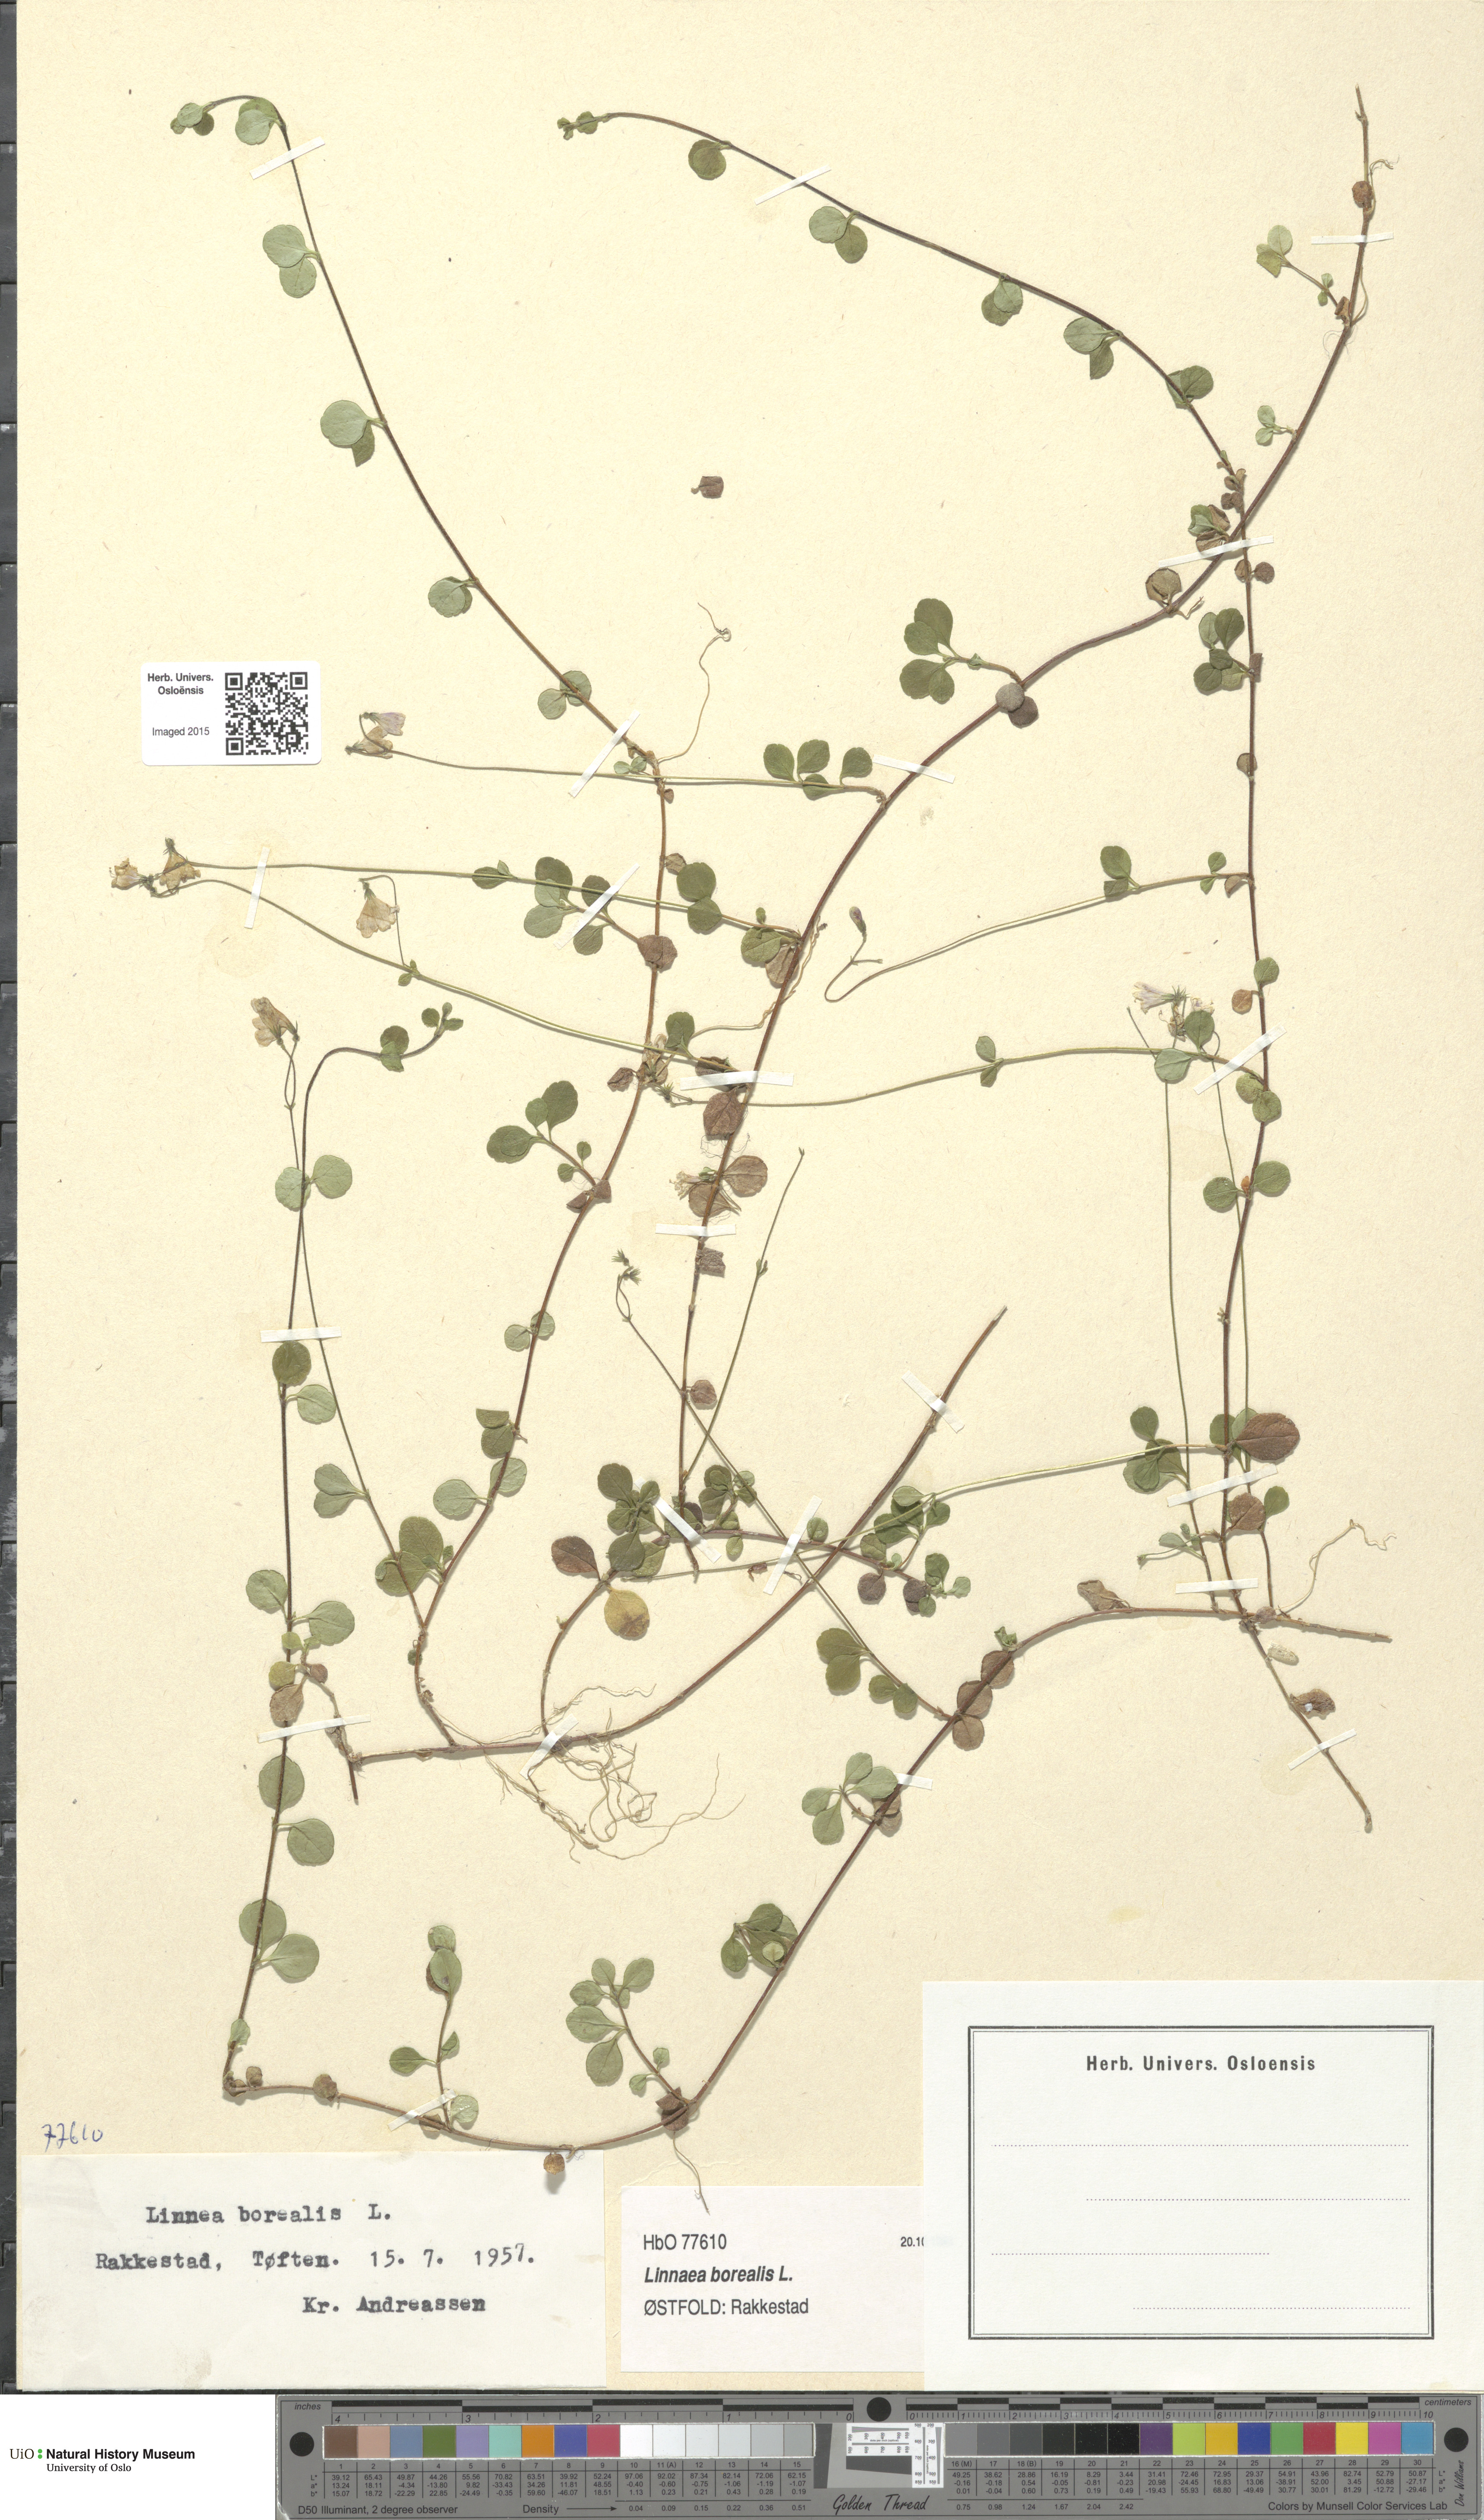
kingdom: Plantae
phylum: Tracheophyta
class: Magnoliopsida
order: Dipsacales
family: Caprifoliaceae
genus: Linnaea
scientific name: Linnaea borealis
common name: Twinflower
